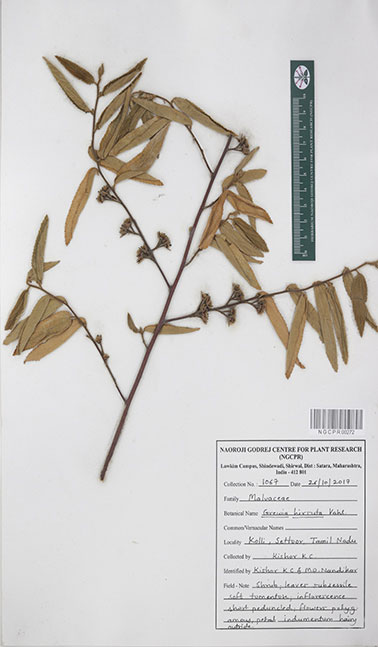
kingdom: Plantae
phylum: Tracheophyta
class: Magnoliopsida
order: Malvales
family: Malvaceae
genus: Grewia
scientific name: Grewia hirsuta
